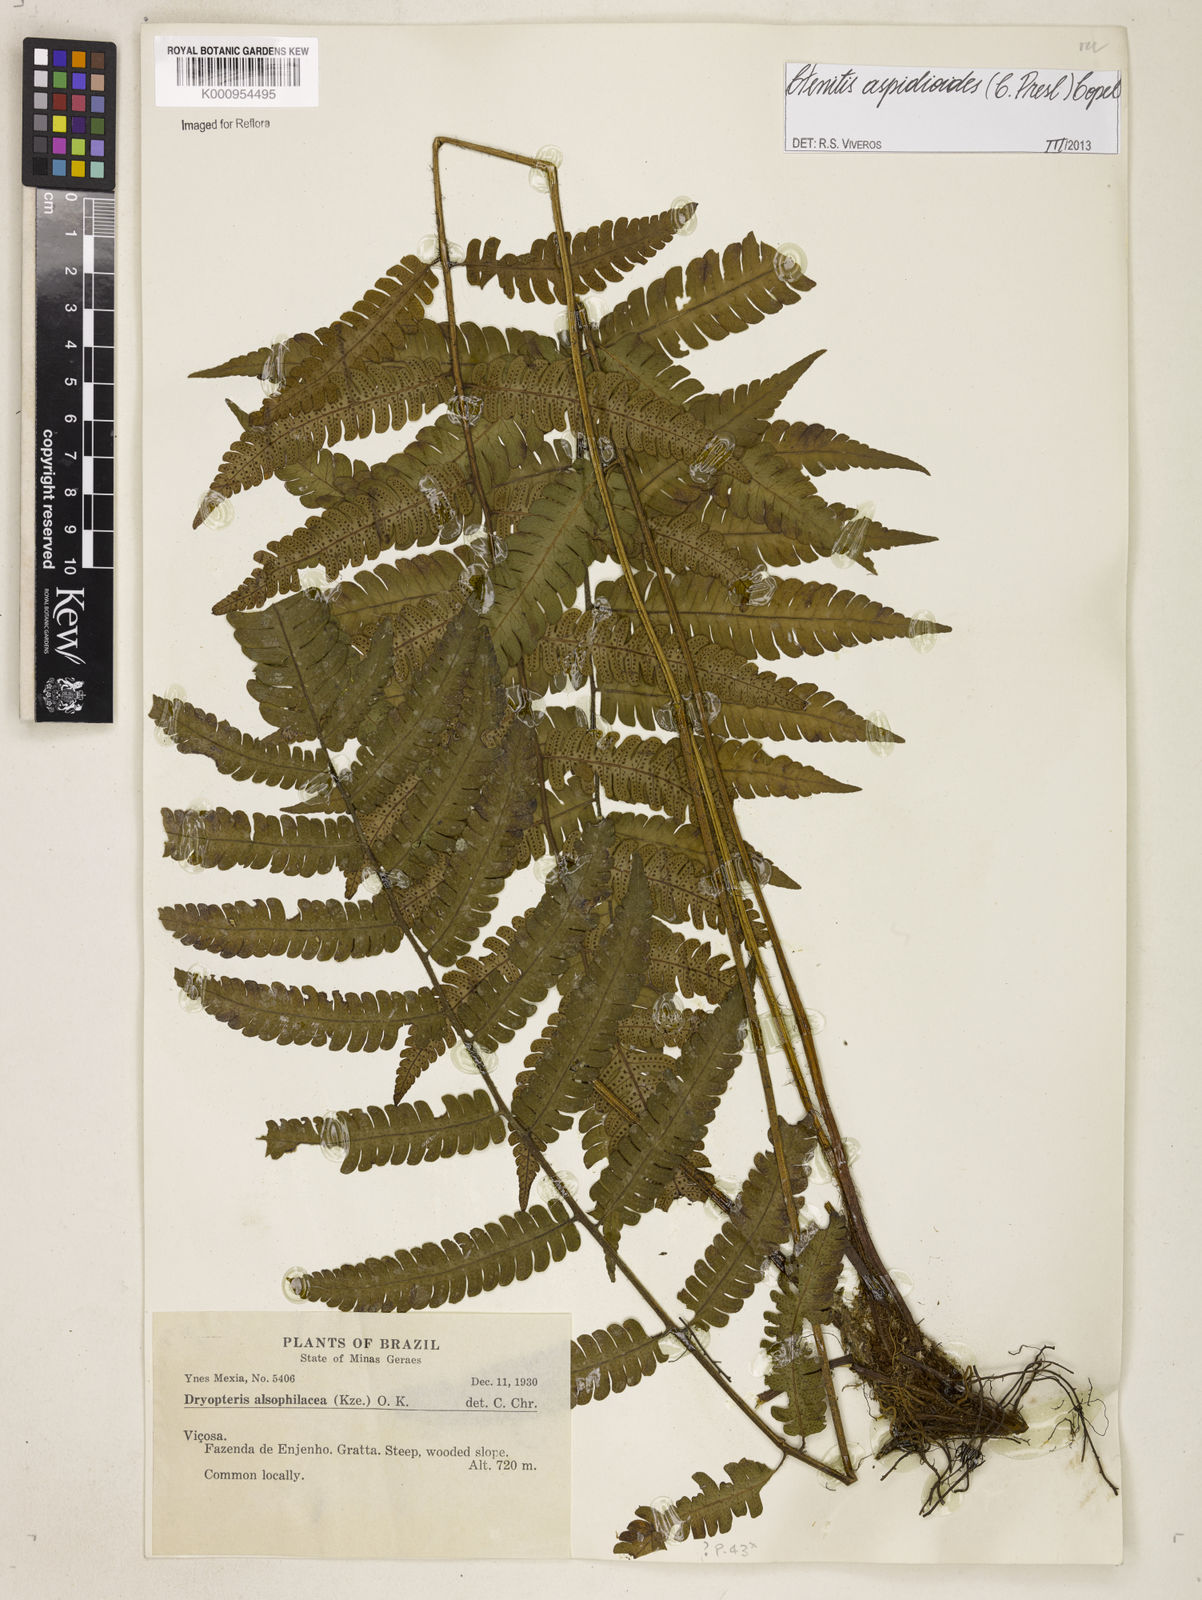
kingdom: Plantae
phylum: Tracheophyta
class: Polypodiopsida
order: Polypodiales
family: Dryopteridaceae
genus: Ctenitis
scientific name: Ctenitis aspidioides
